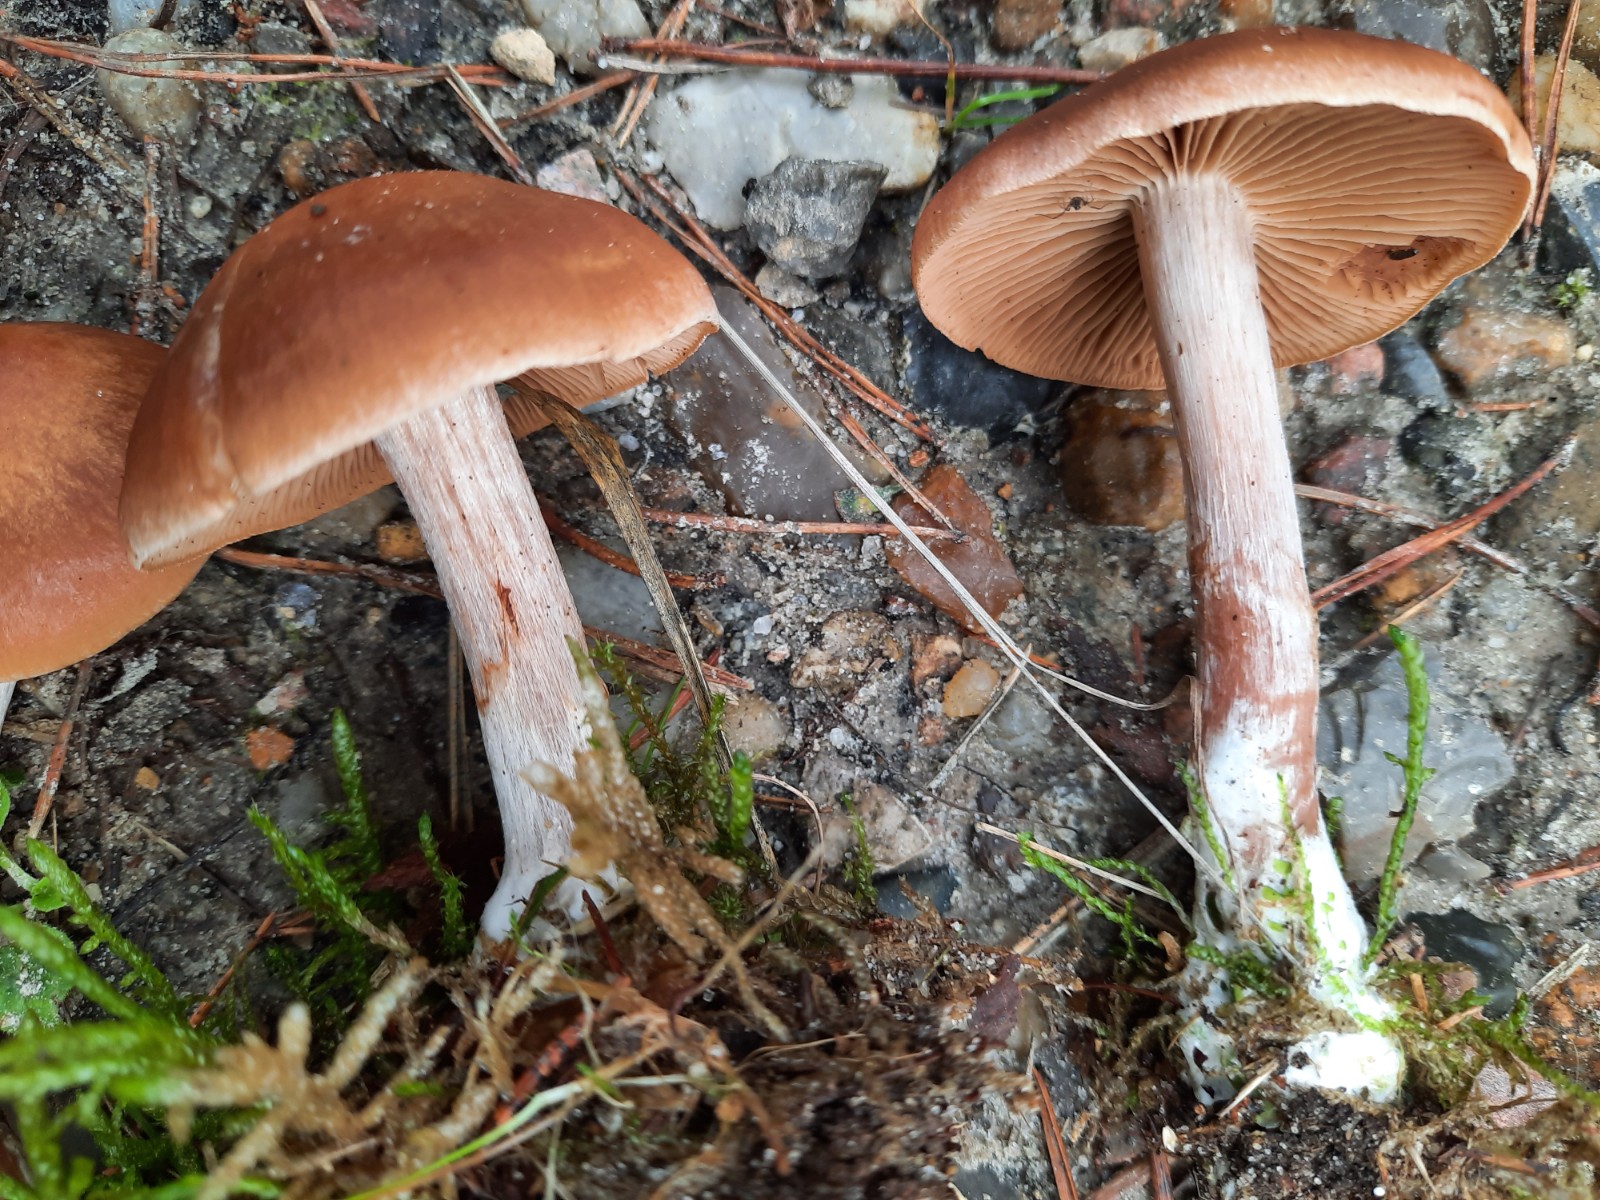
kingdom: Fungi
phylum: Basidiomycota
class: Agaricomycetes
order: Agaricales
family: Cortinariaceae
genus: Cortinarius
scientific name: Cortinarius
